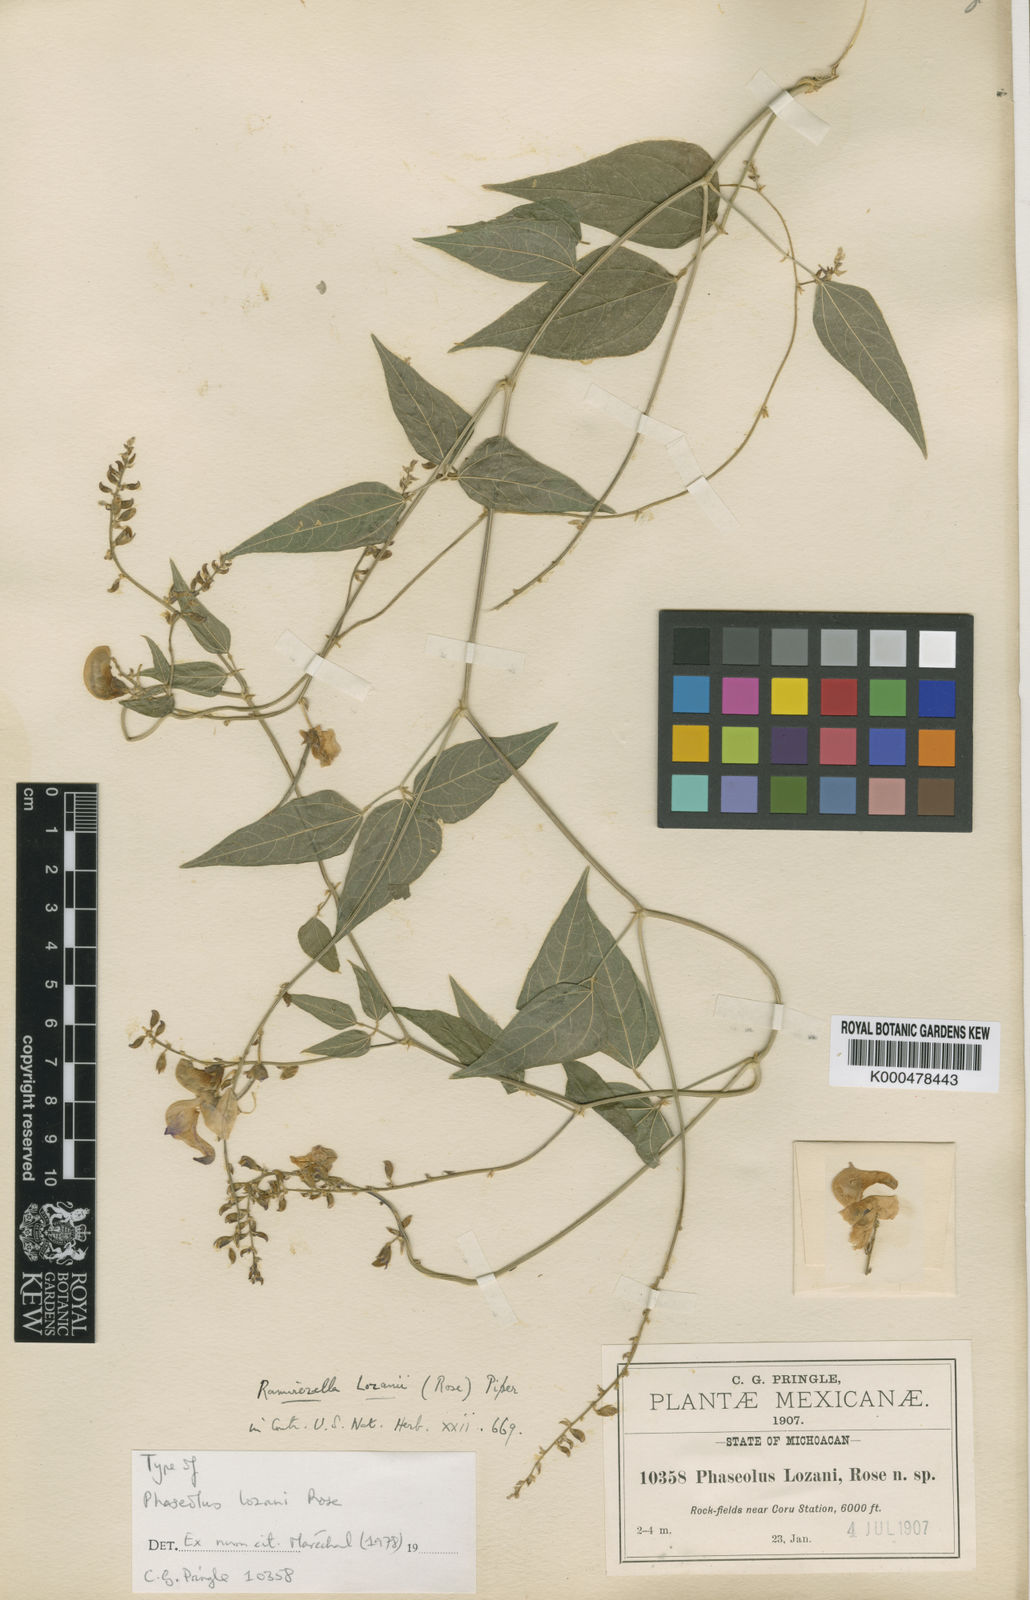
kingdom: Plantae
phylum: Tracheophyta
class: Magnoliopsida
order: Fabales
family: Fabaceae
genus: Ramirezella
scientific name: Ramirezella lozanii
